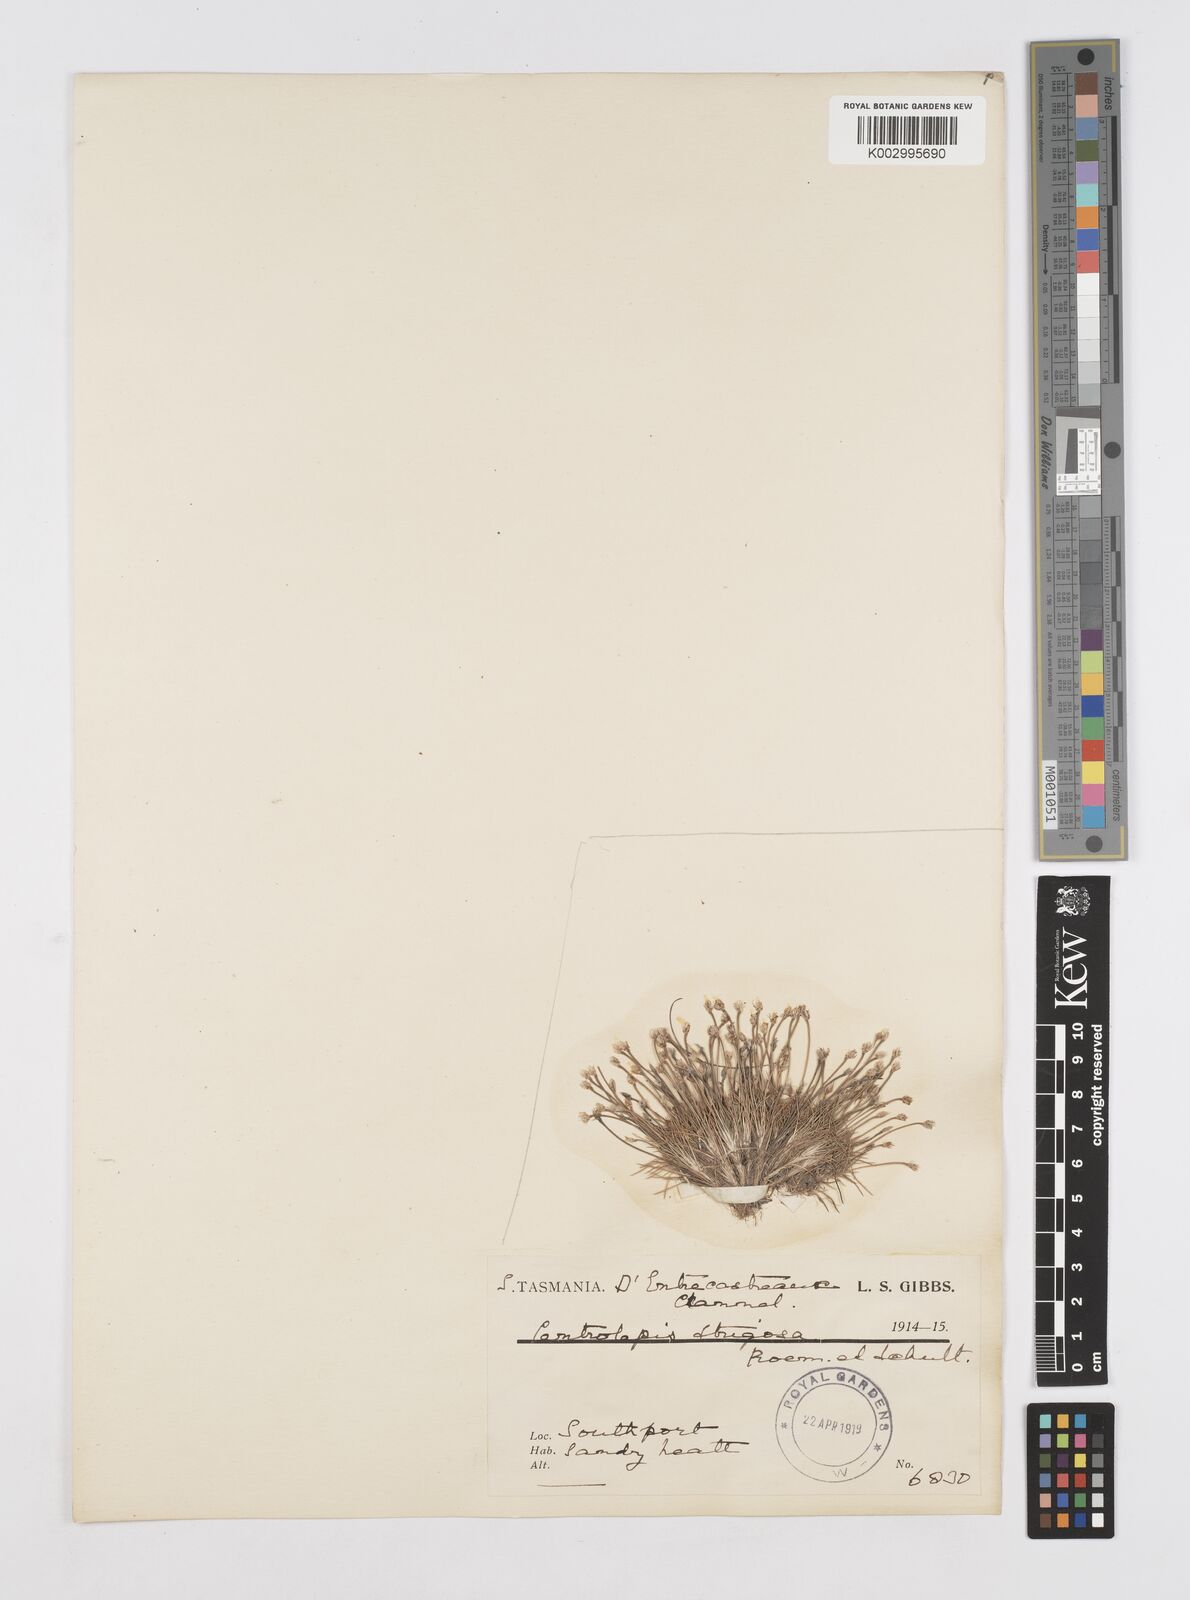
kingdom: Plantae
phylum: Tracheophyta
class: Liliopsida
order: Poales
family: Restionaceae
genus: Centrolepis
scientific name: Centrolepis strigosa
